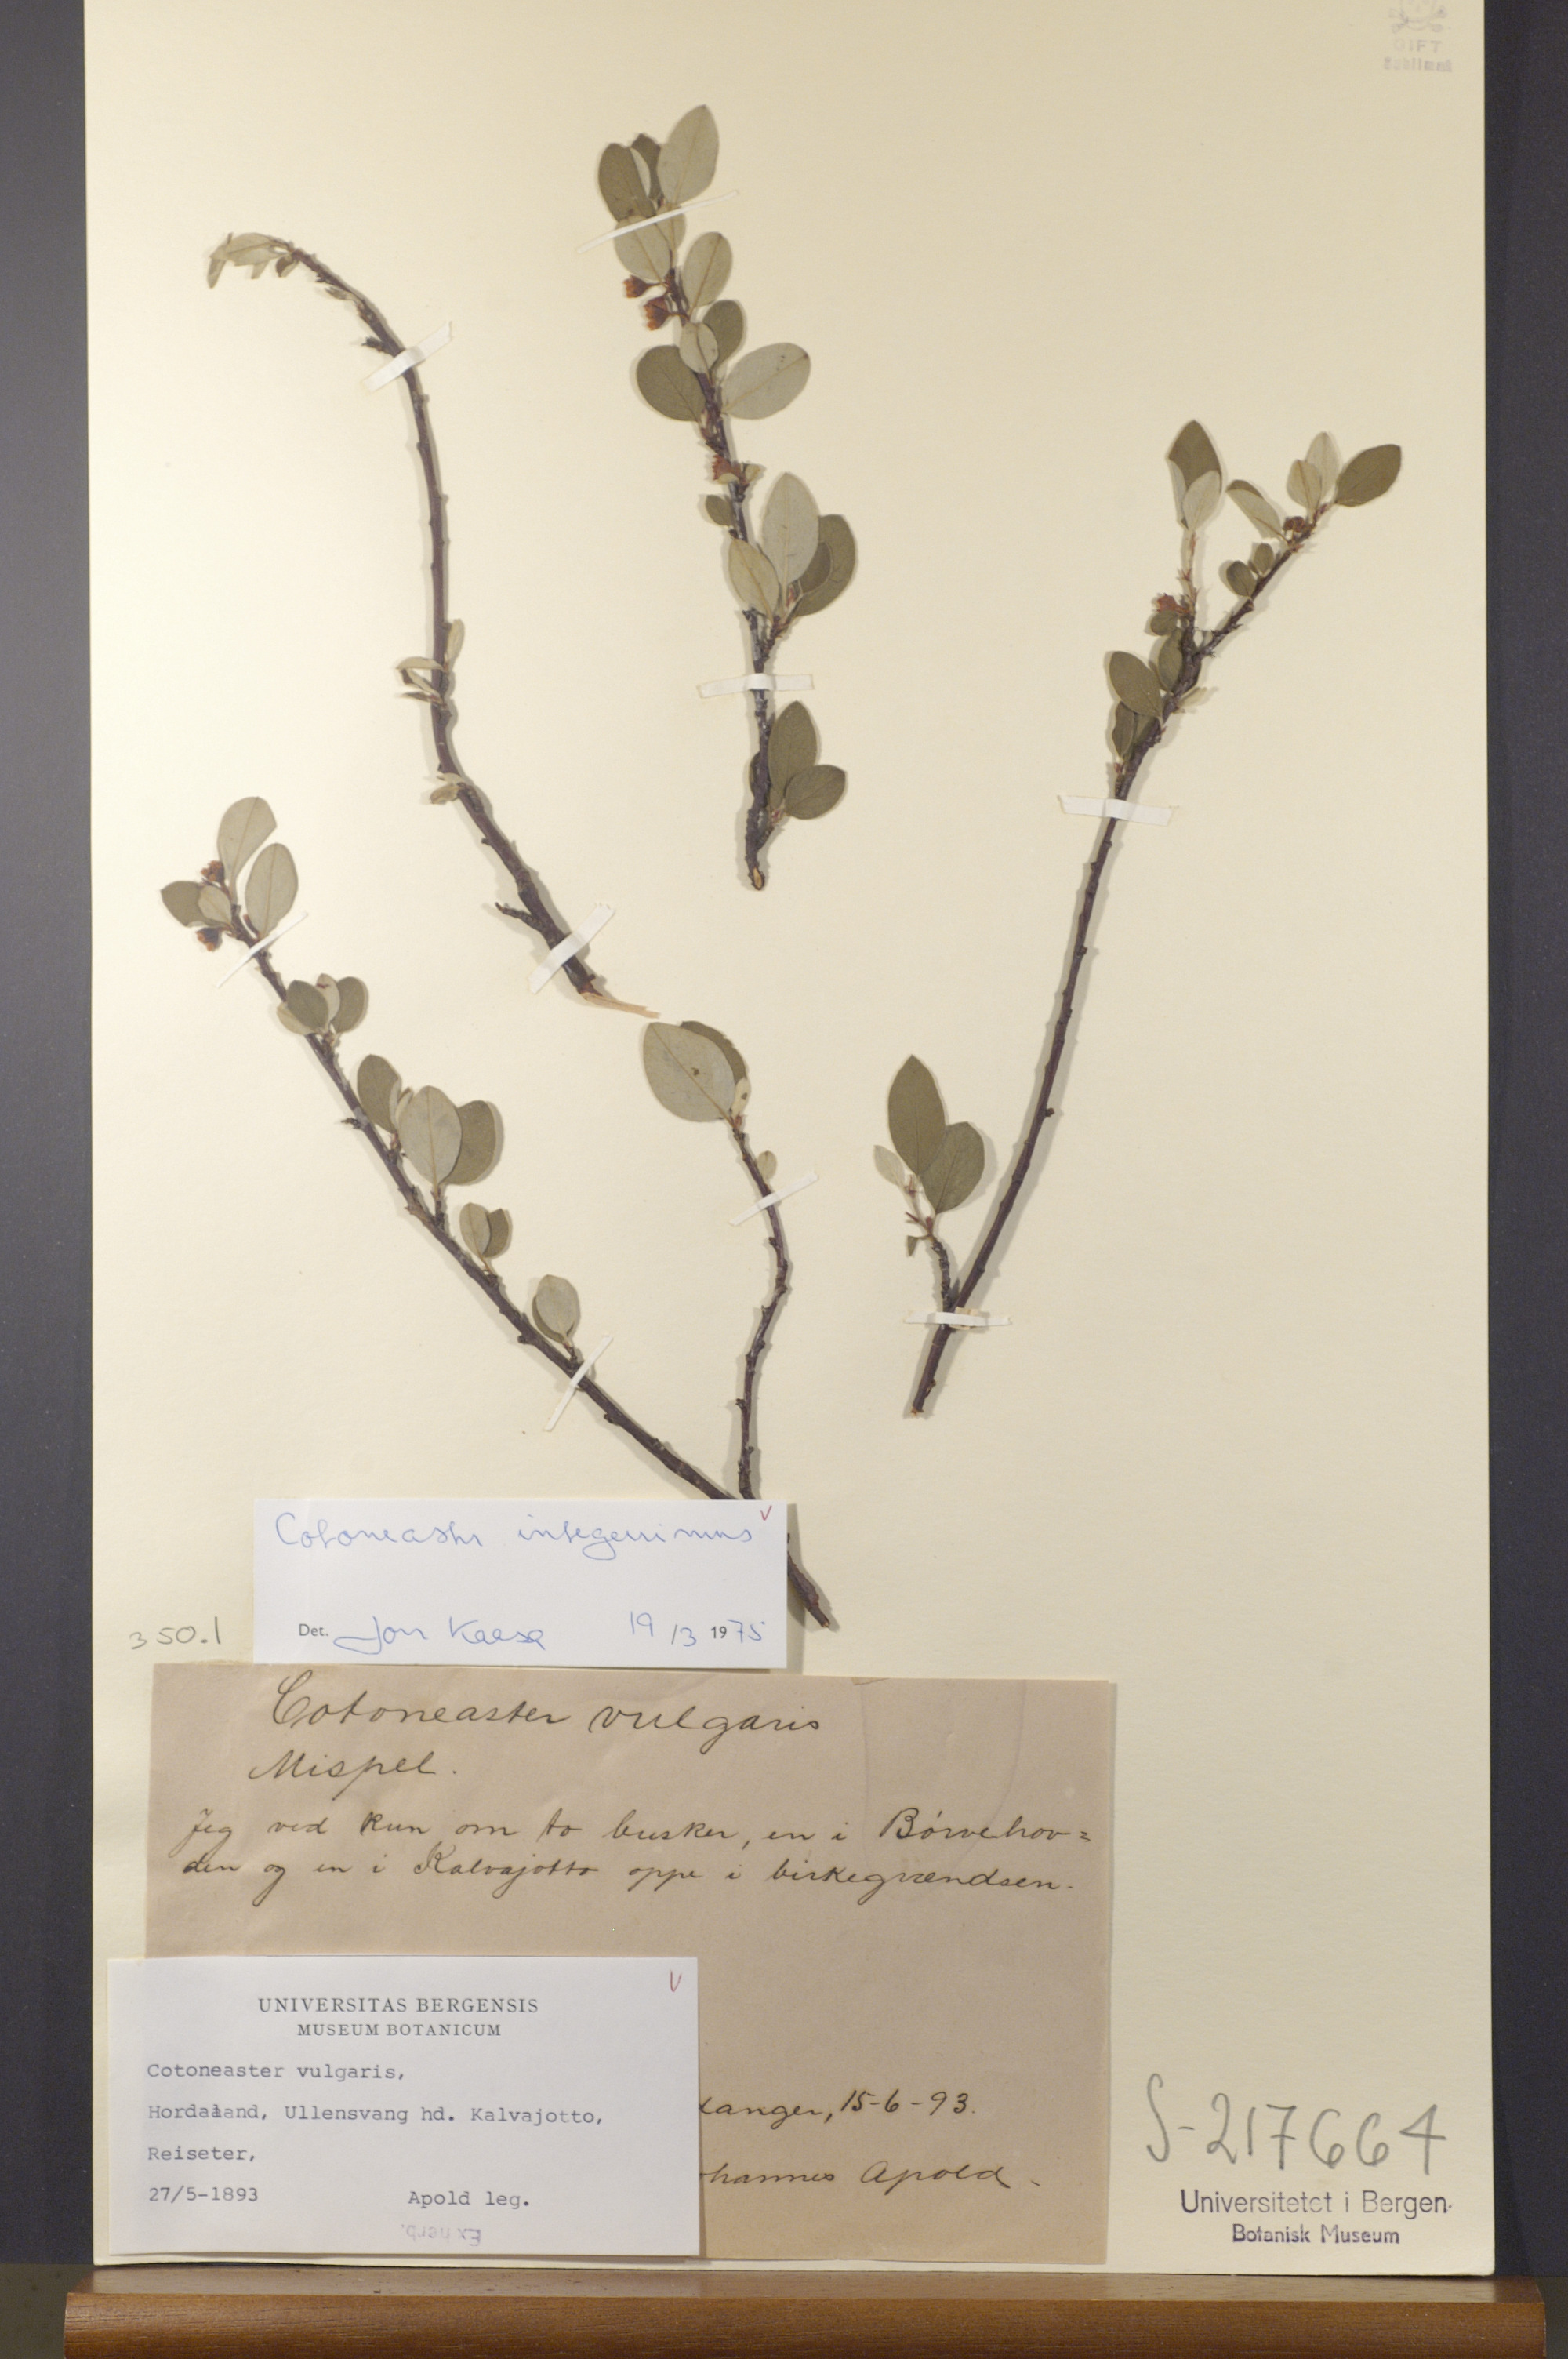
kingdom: Plantae
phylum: Tracheophyta
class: Magnoliopsida
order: Rosales
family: Rosaceae
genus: Cotoneaster
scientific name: Cotoneaster integerrimus
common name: Wild cotoneaster
